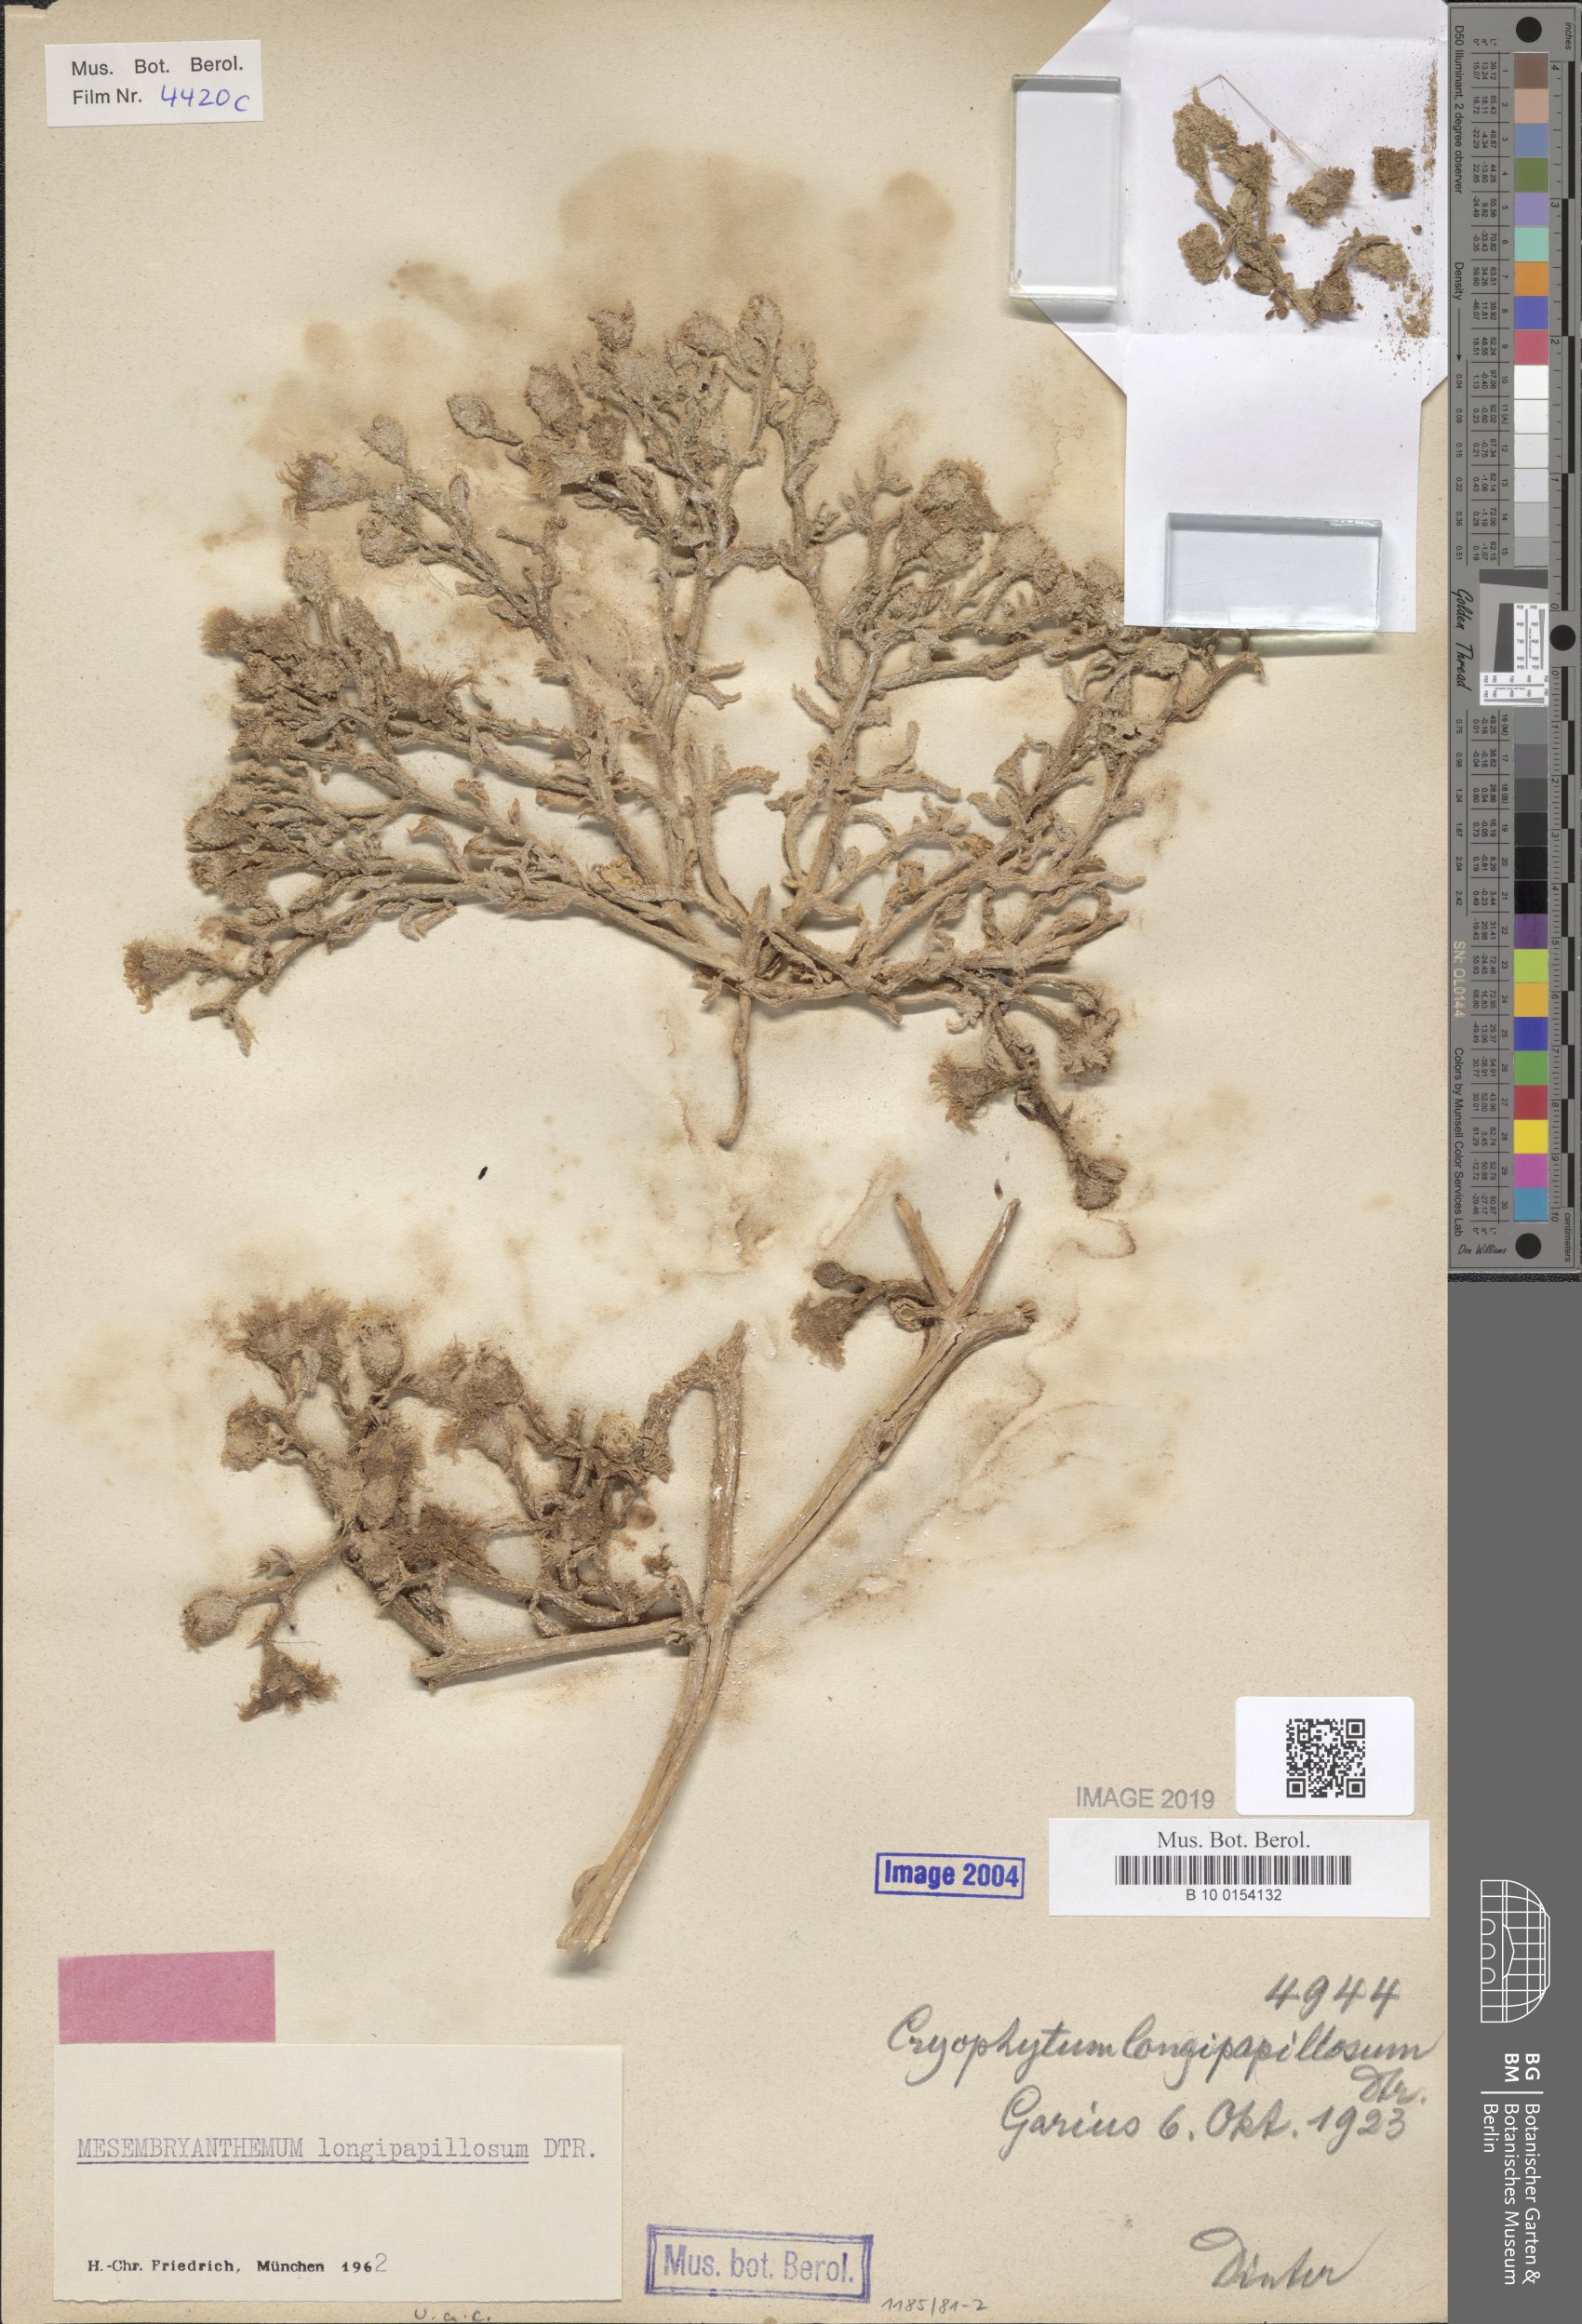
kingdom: Plantae
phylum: Tracheophyta
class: Magnoliopsida
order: Caryophyllales
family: Aizoaceae
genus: Mesembryanthemum
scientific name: Mesembryanthemum inachabense
